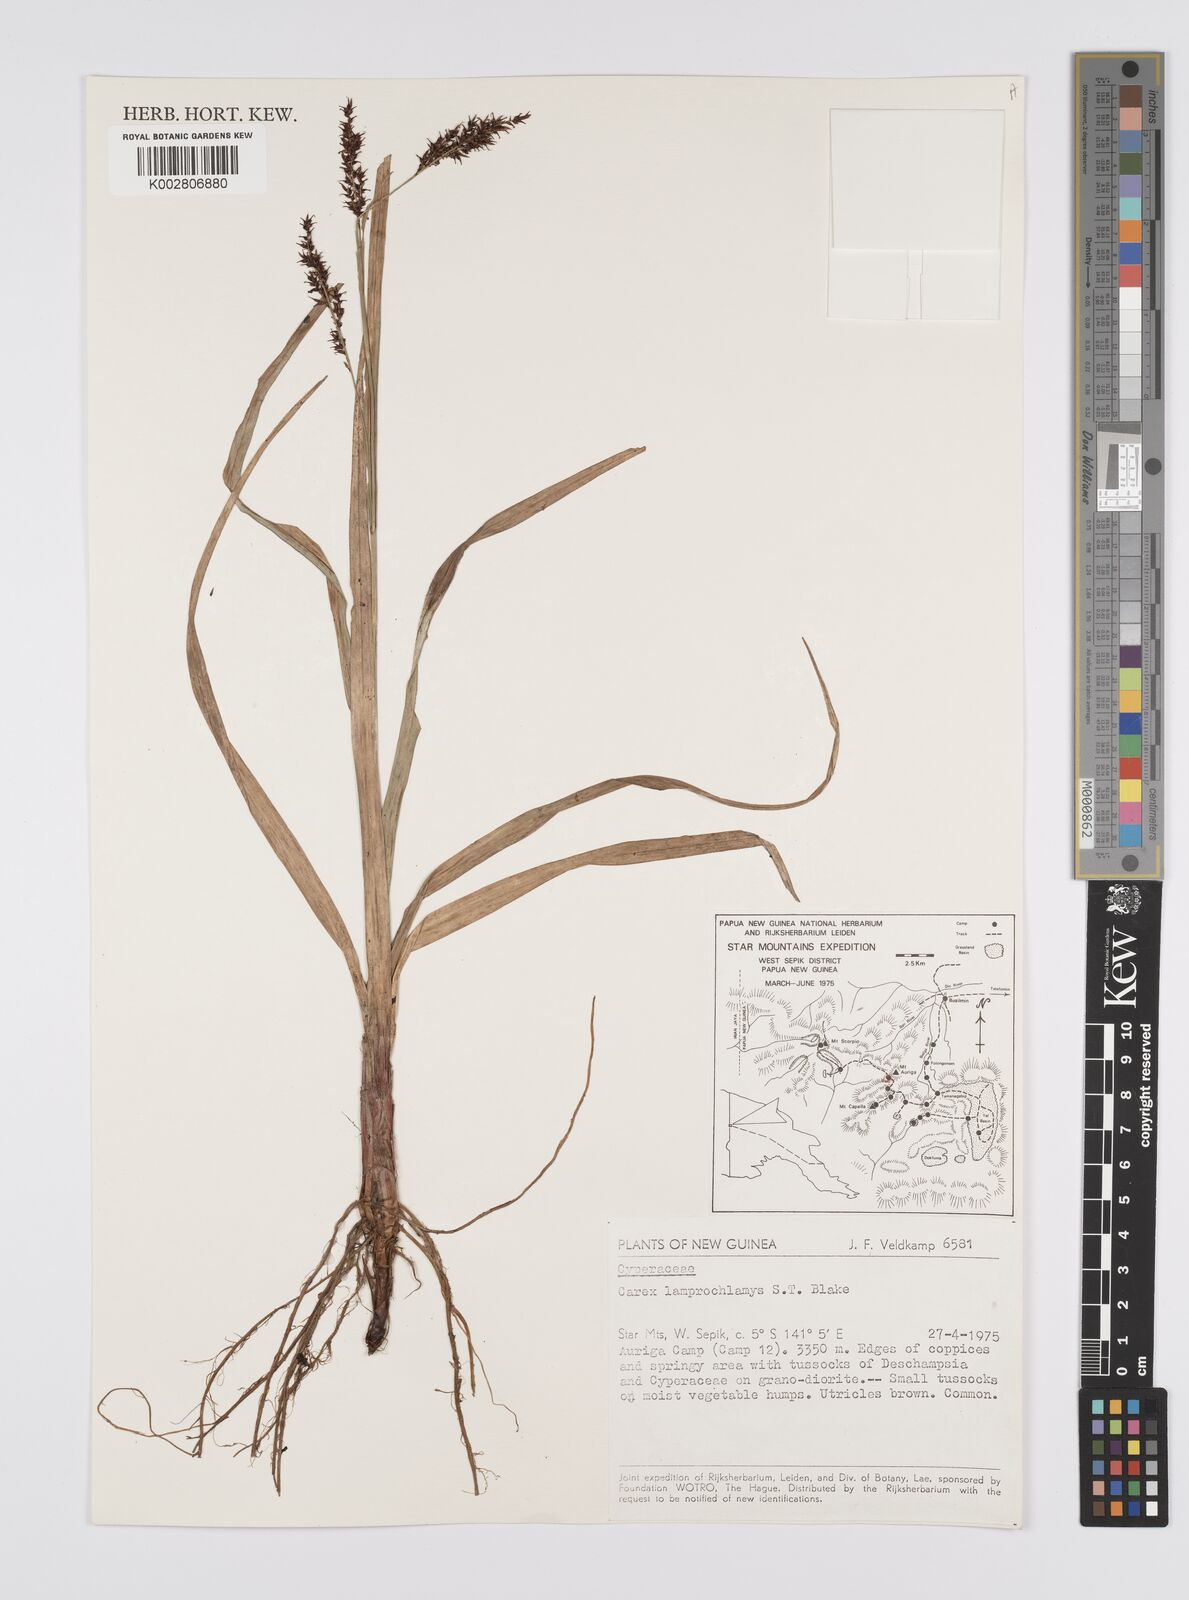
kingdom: Plantae
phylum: Tracheophyta
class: Liliopsida
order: Poales
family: Cyperaceae
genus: Carex
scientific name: Carex lamprochlamys
